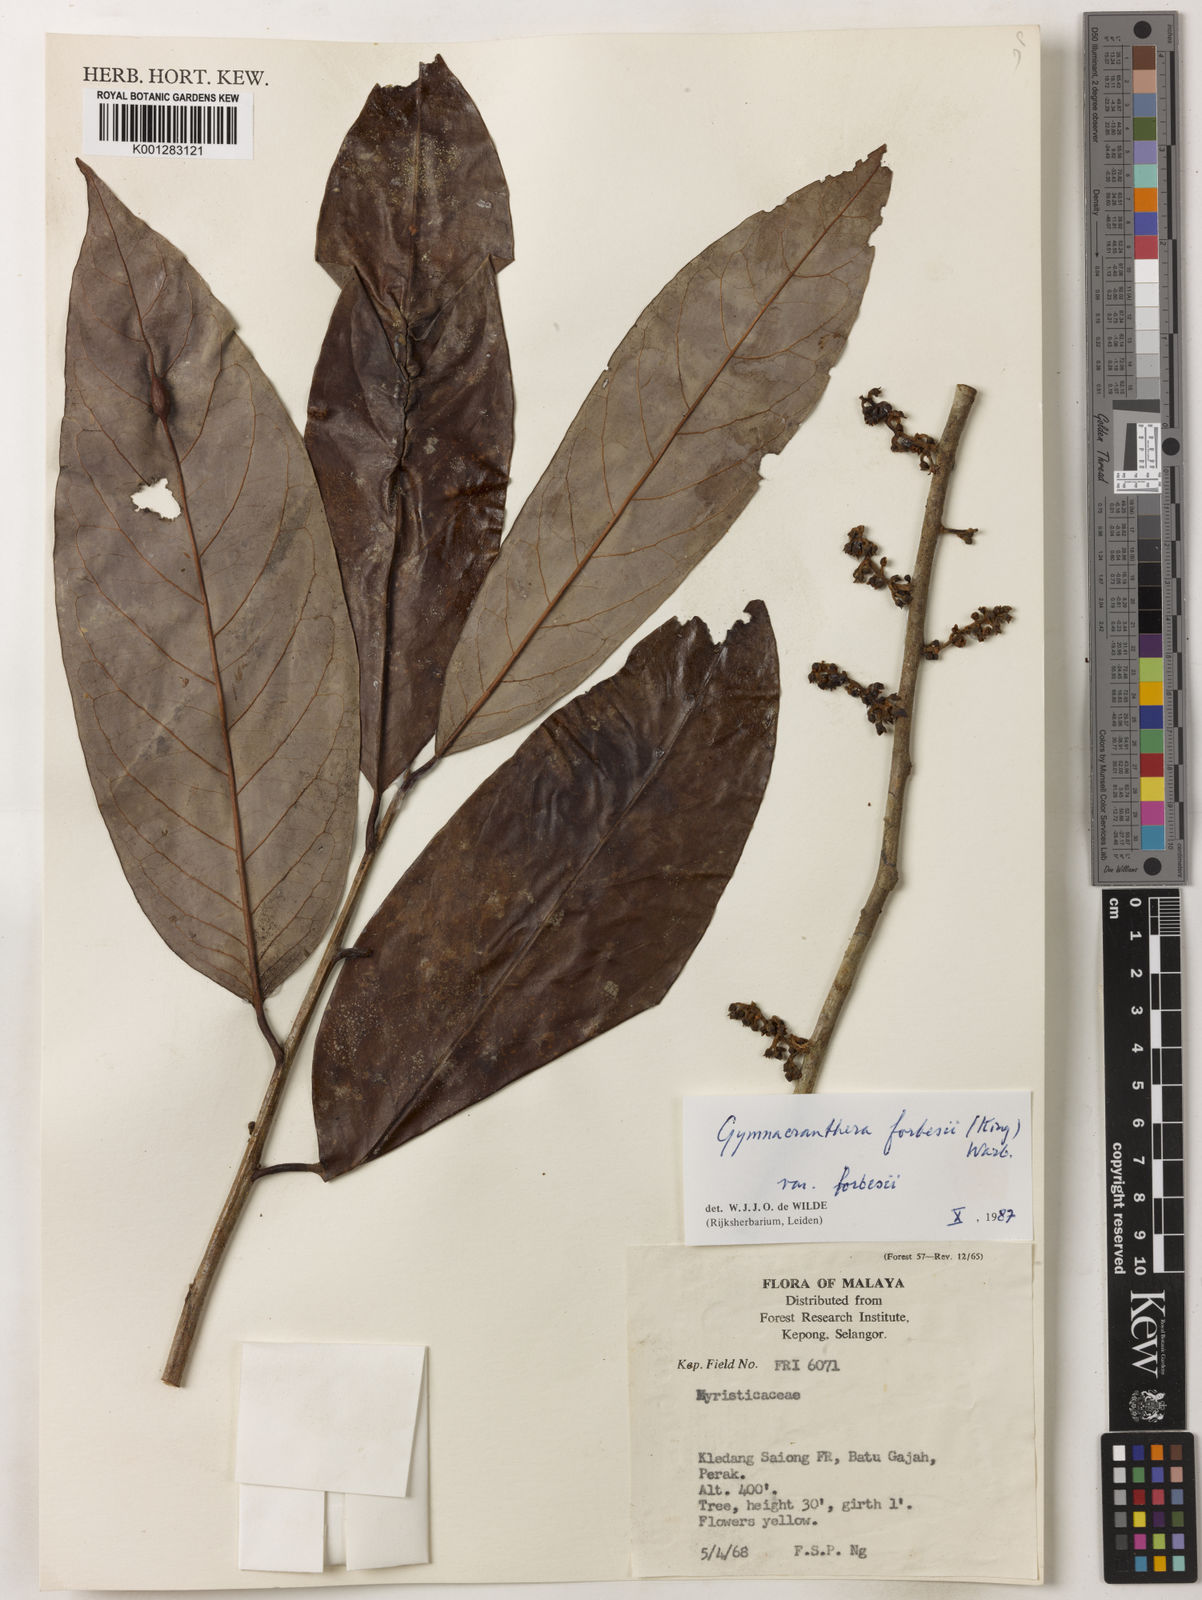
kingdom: Plantae
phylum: Tracheophyta
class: Magnoliopsida
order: Magnoliales
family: Myristicaceae
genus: Gymnacranthera
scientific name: Gymnacranthera forbesii
